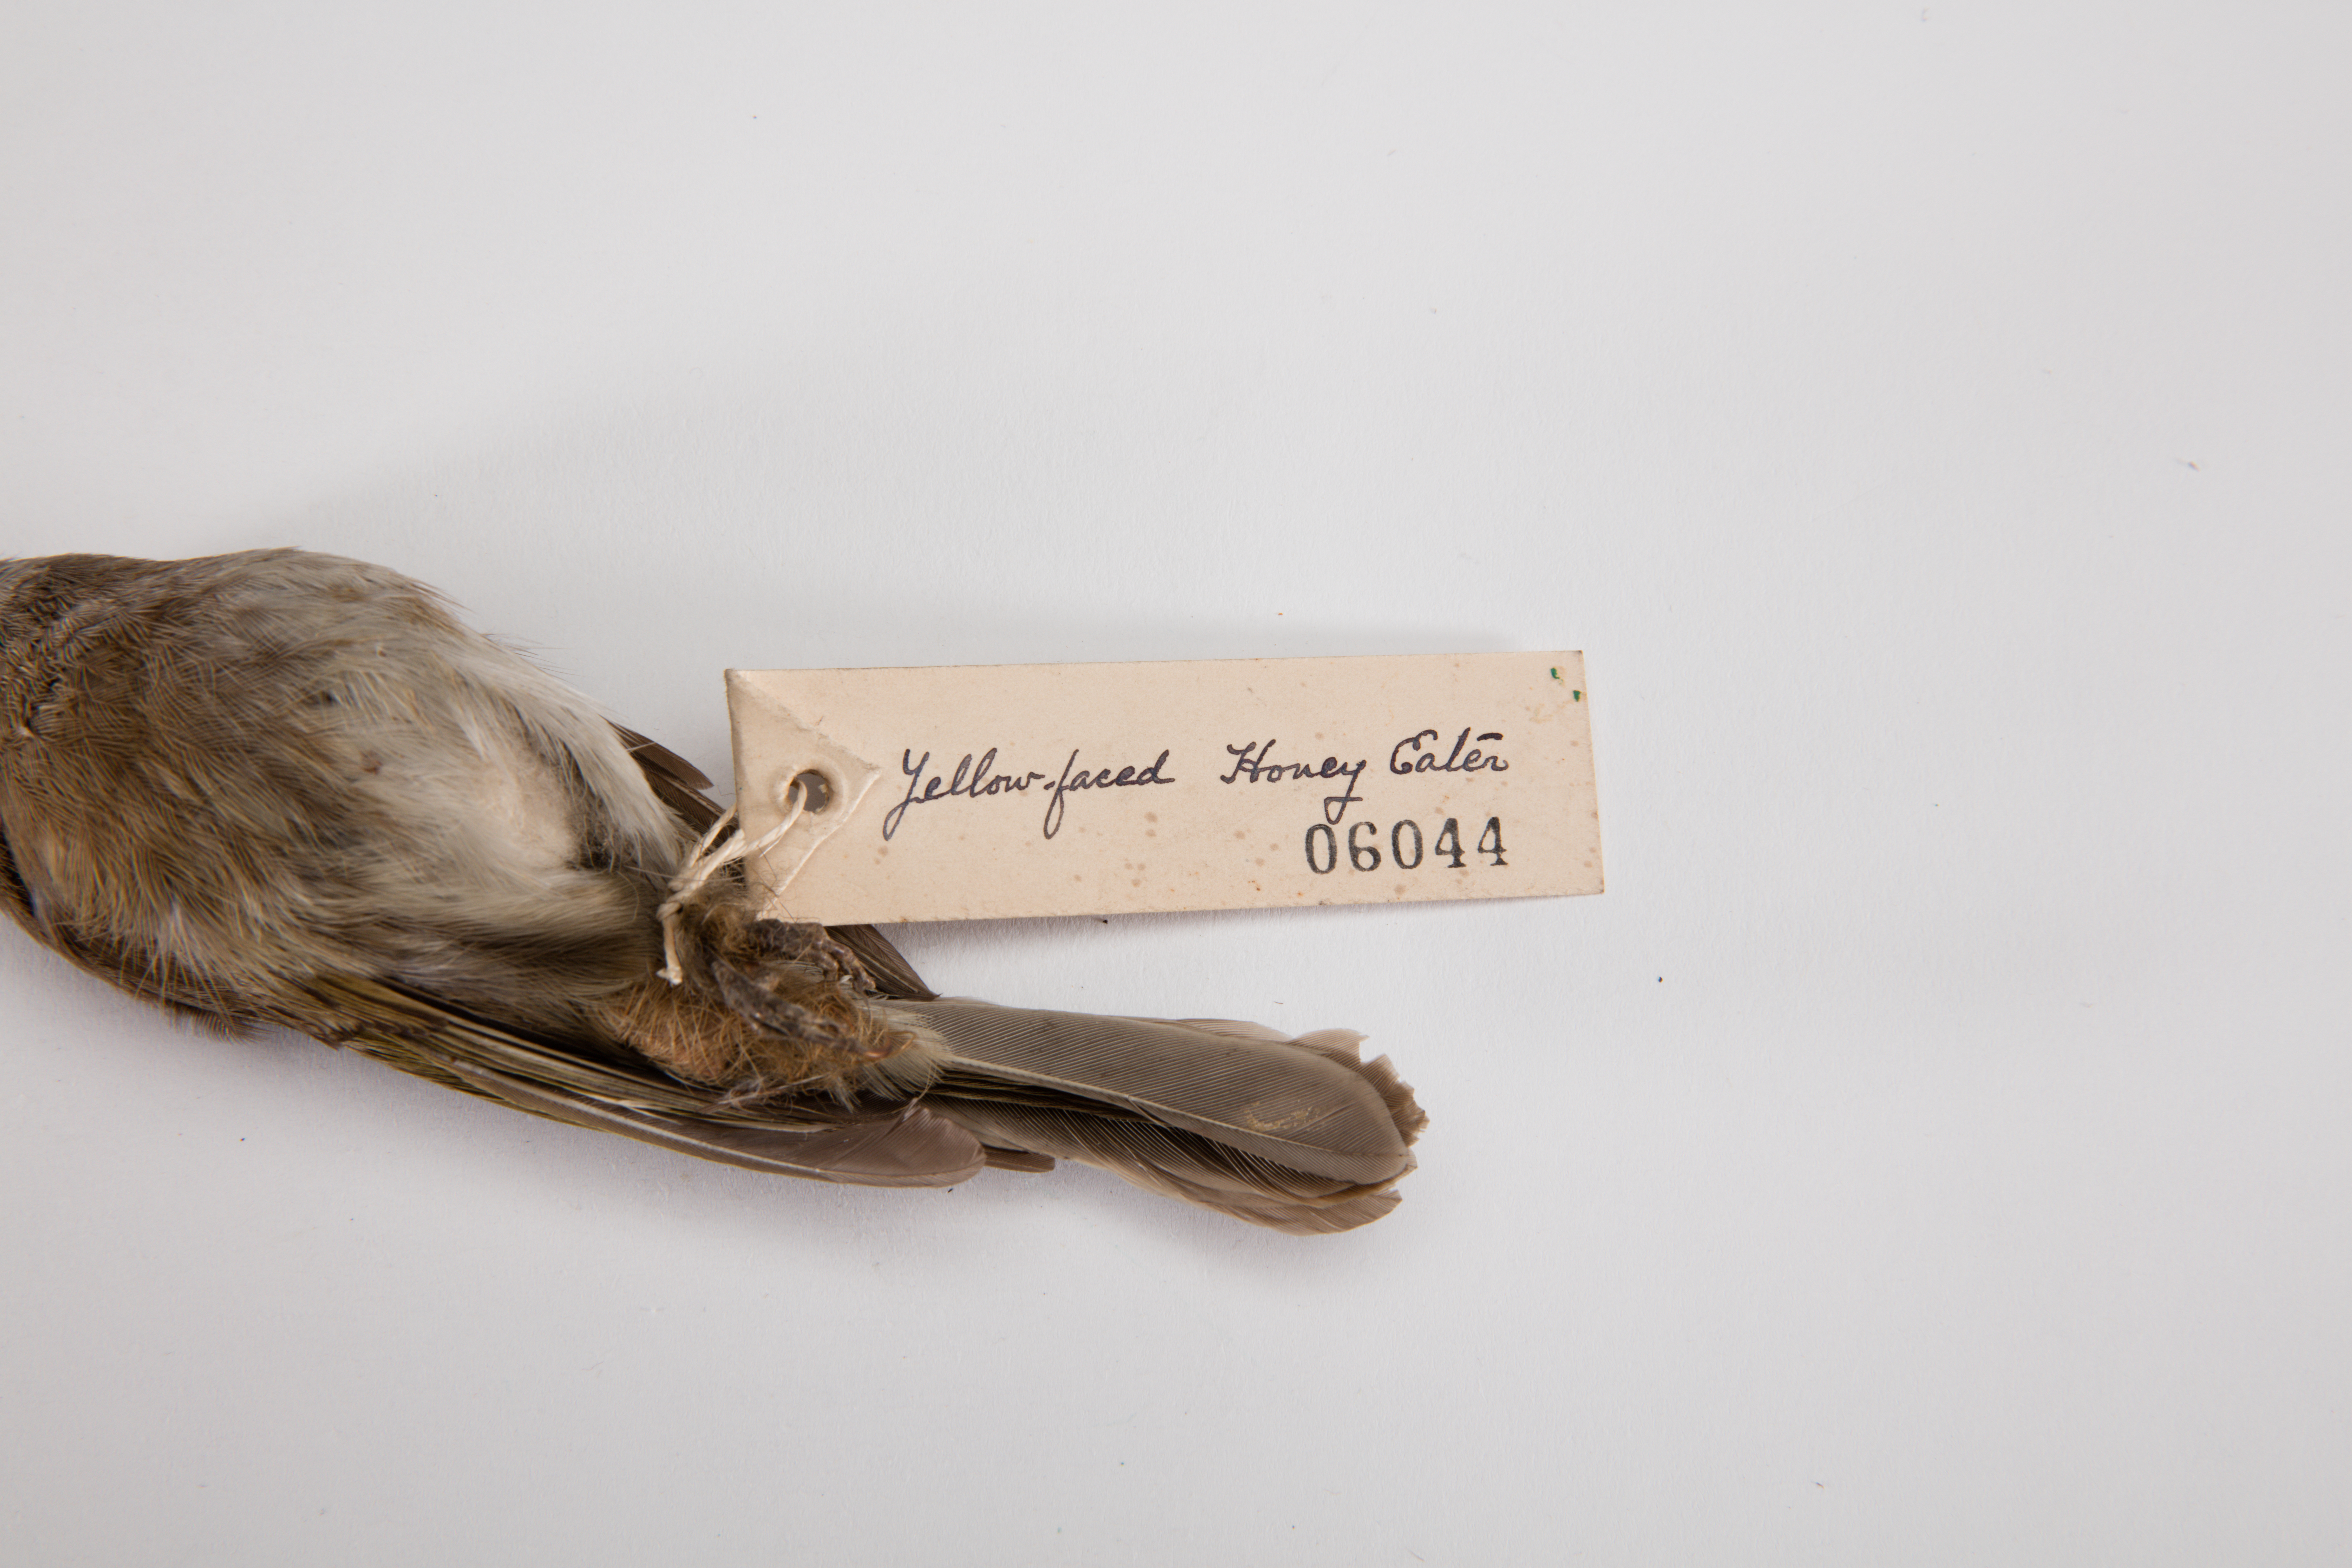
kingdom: Animalia
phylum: Chordata
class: Aves
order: Passeriformes
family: Meliphagidae
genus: Caligavis
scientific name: Caligavis chrysops
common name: Yellow-faced honeyeater
